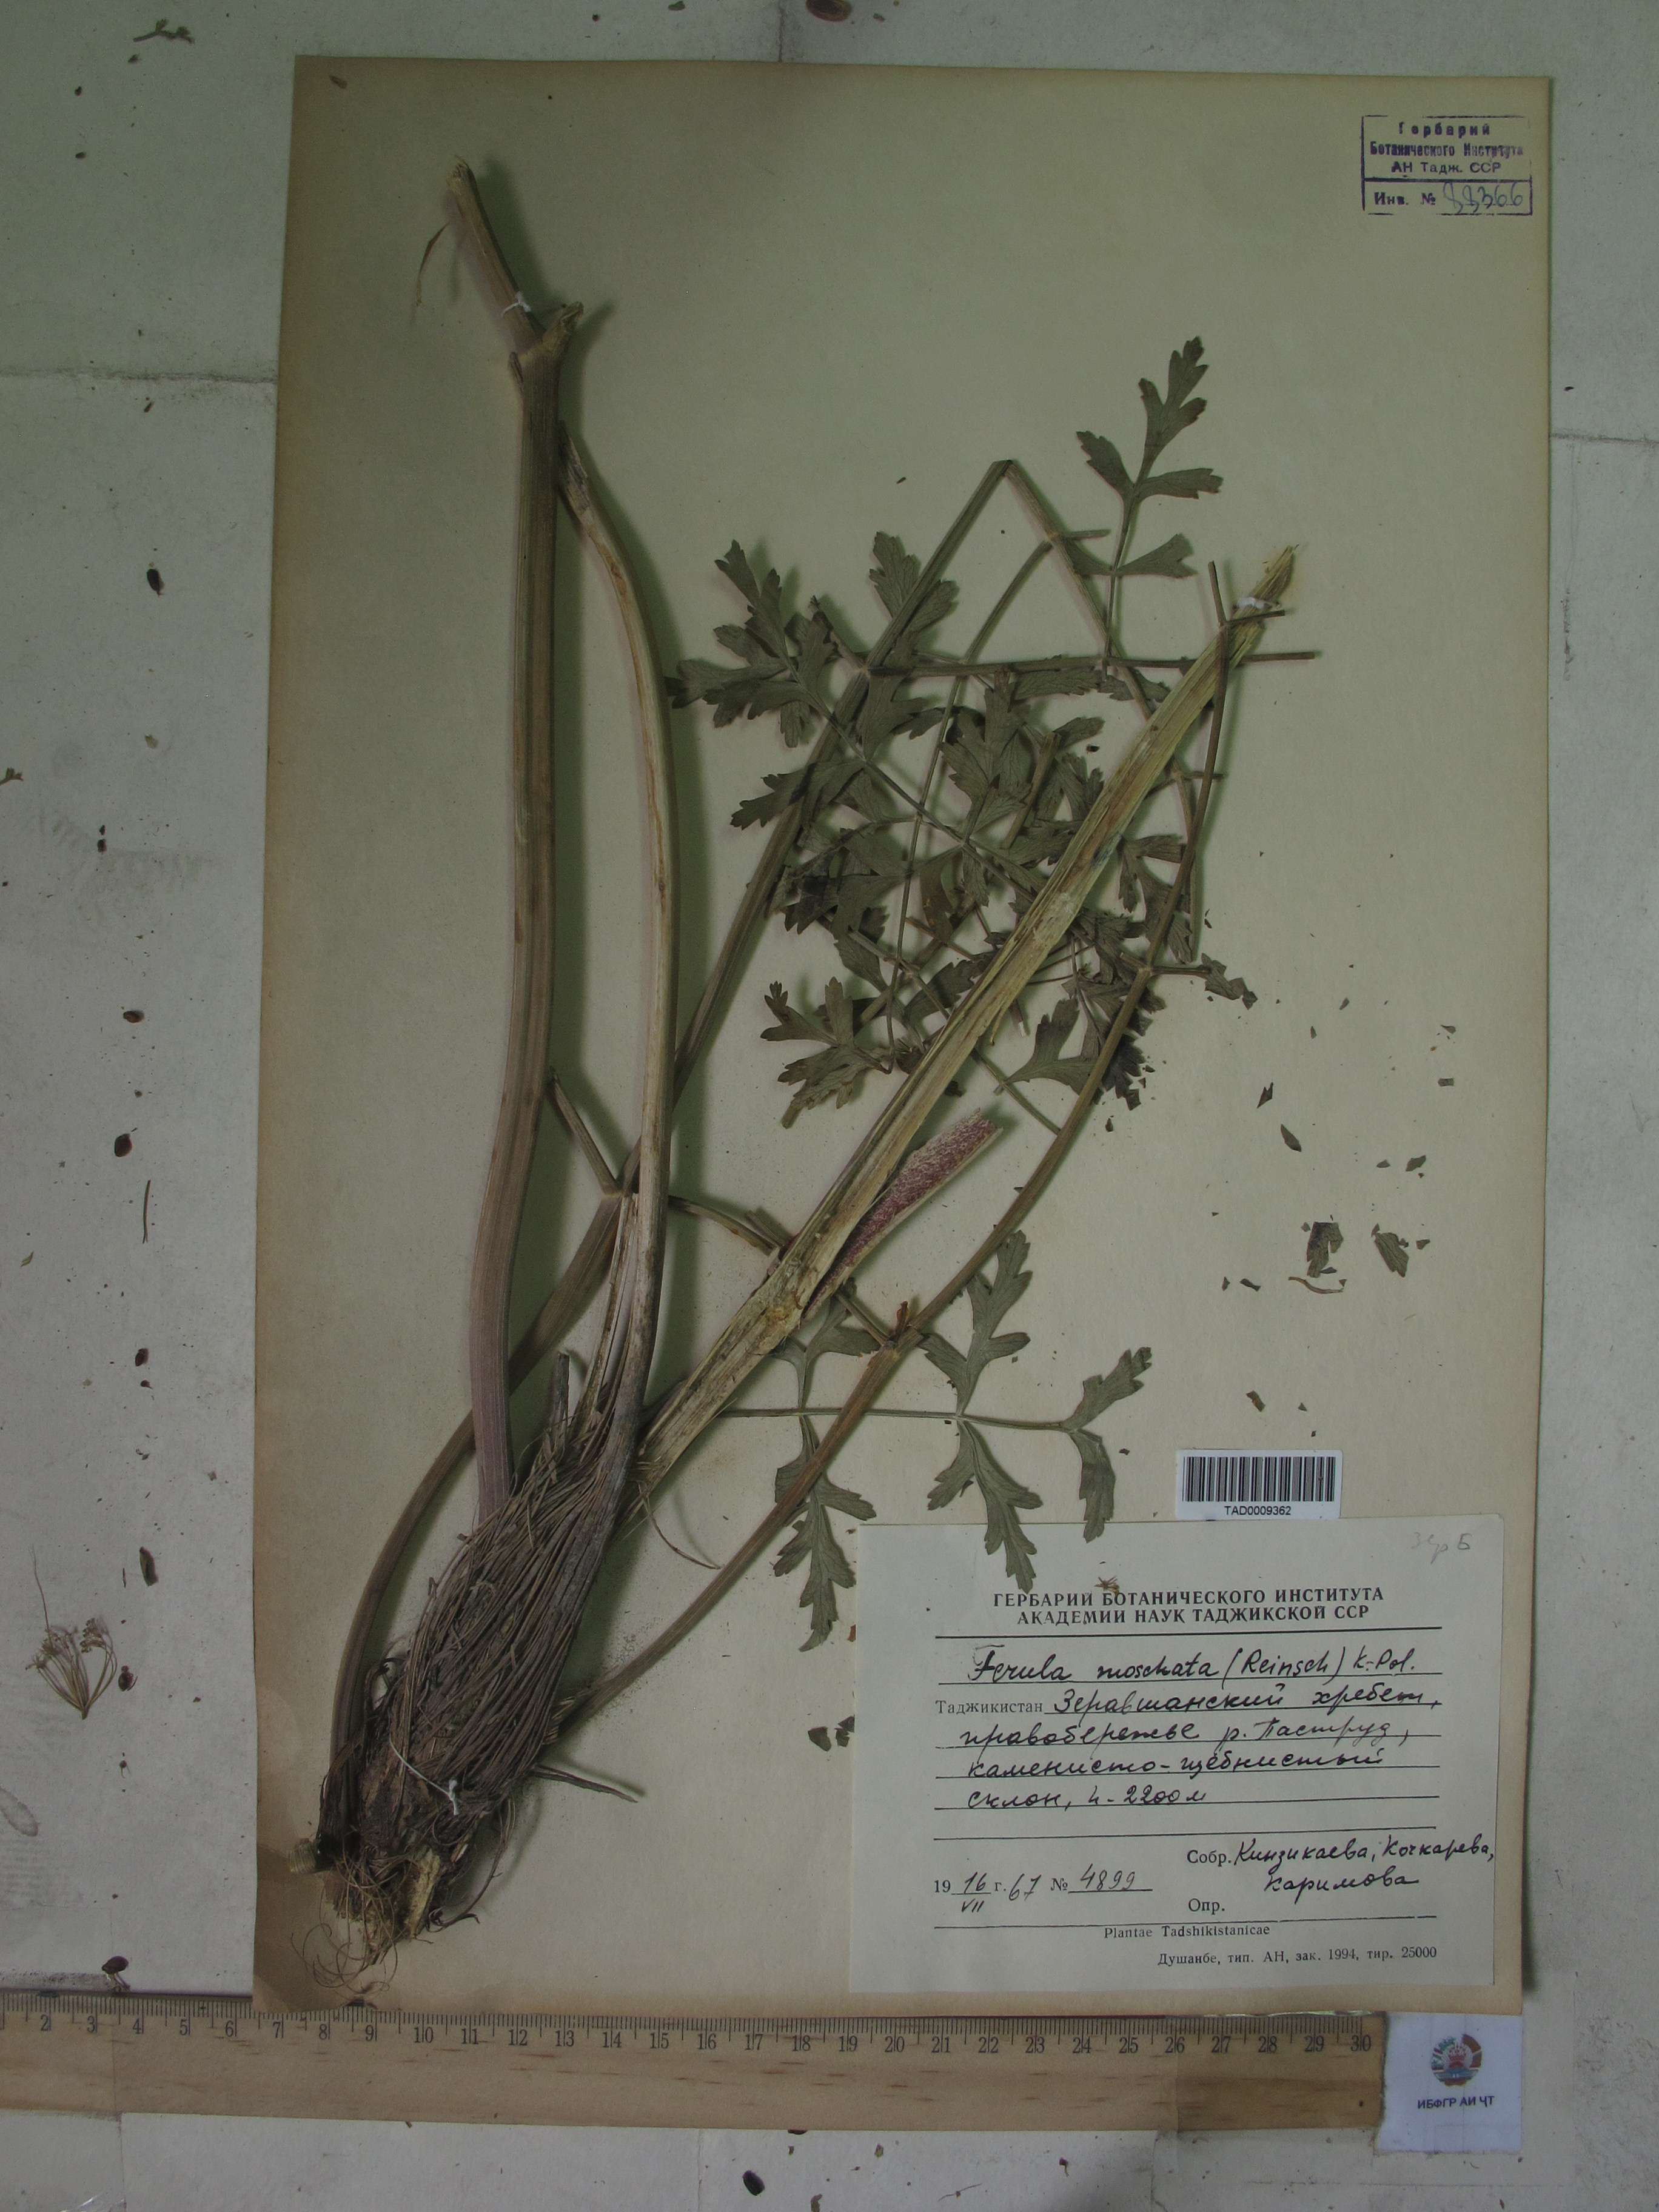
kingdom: Plantae
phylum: Tracheophyta
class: Magnoliopsida
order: Apiales
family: Apiaceae
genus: Ferula
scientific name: Ferula moschata
